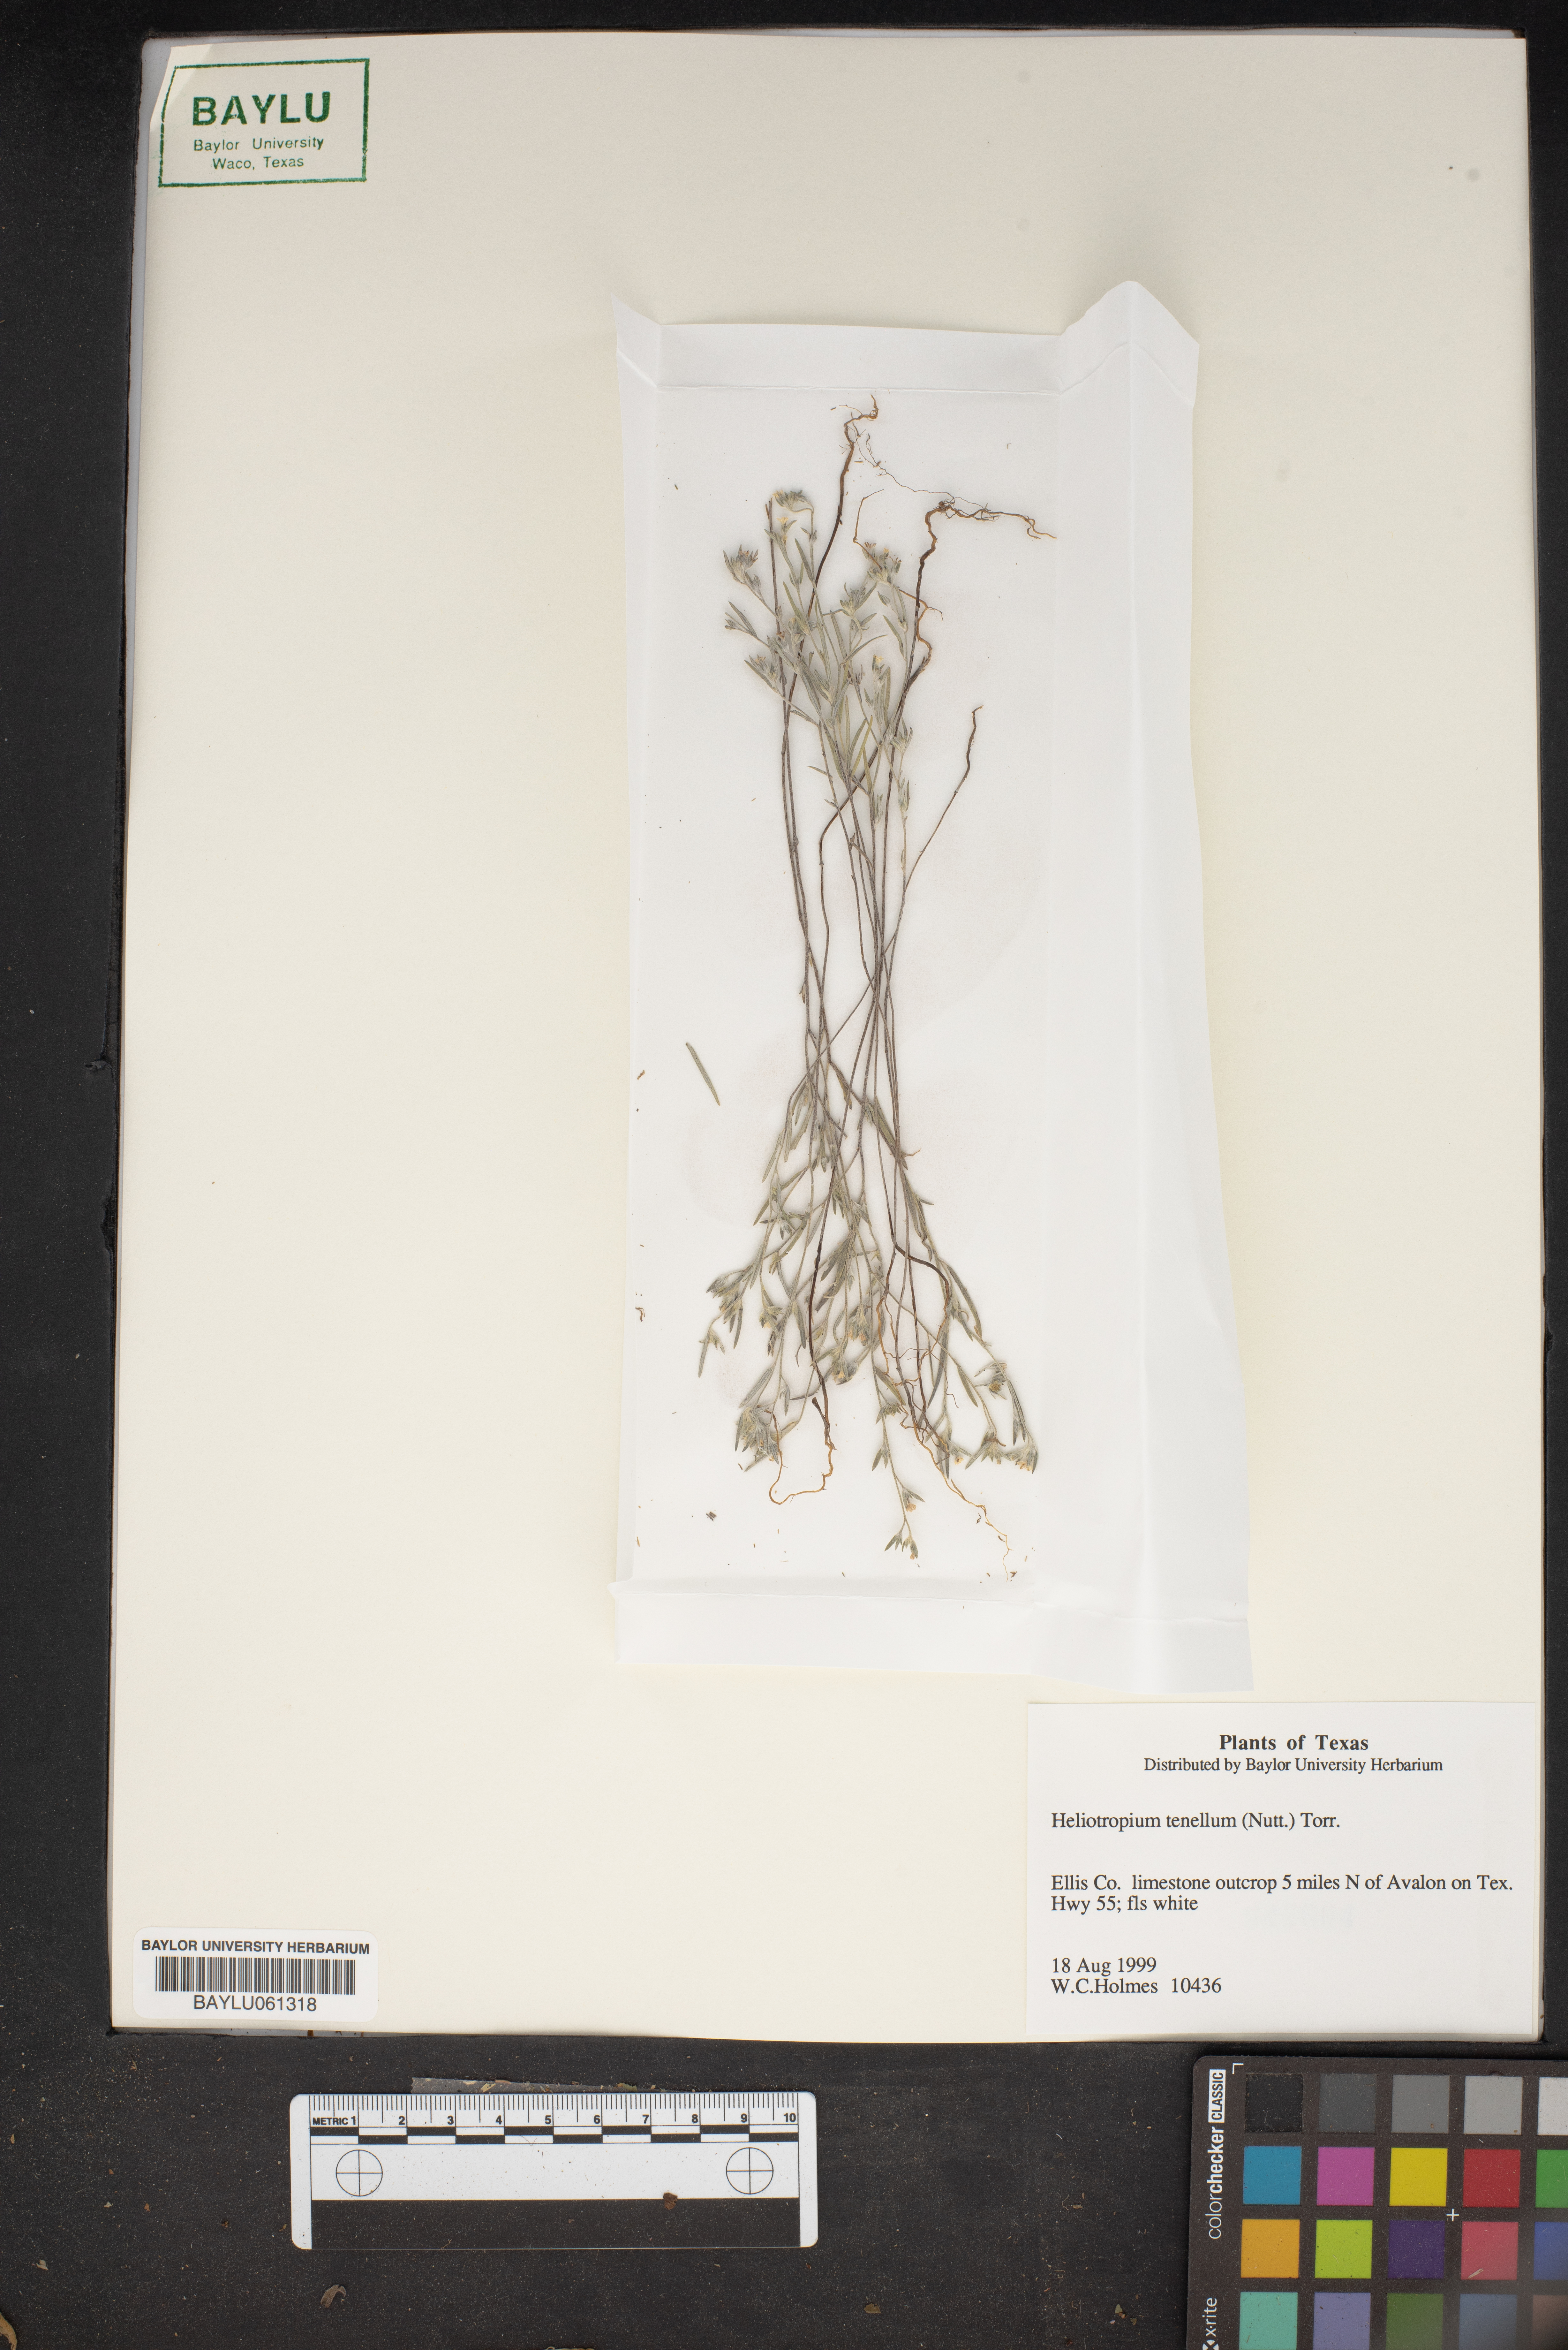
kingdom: Plantae
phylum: Tracheophyta
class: Magnoliopsida
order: Boraginales
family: Heliotropiaceae
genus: Euploca
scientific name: Euploca tenella
